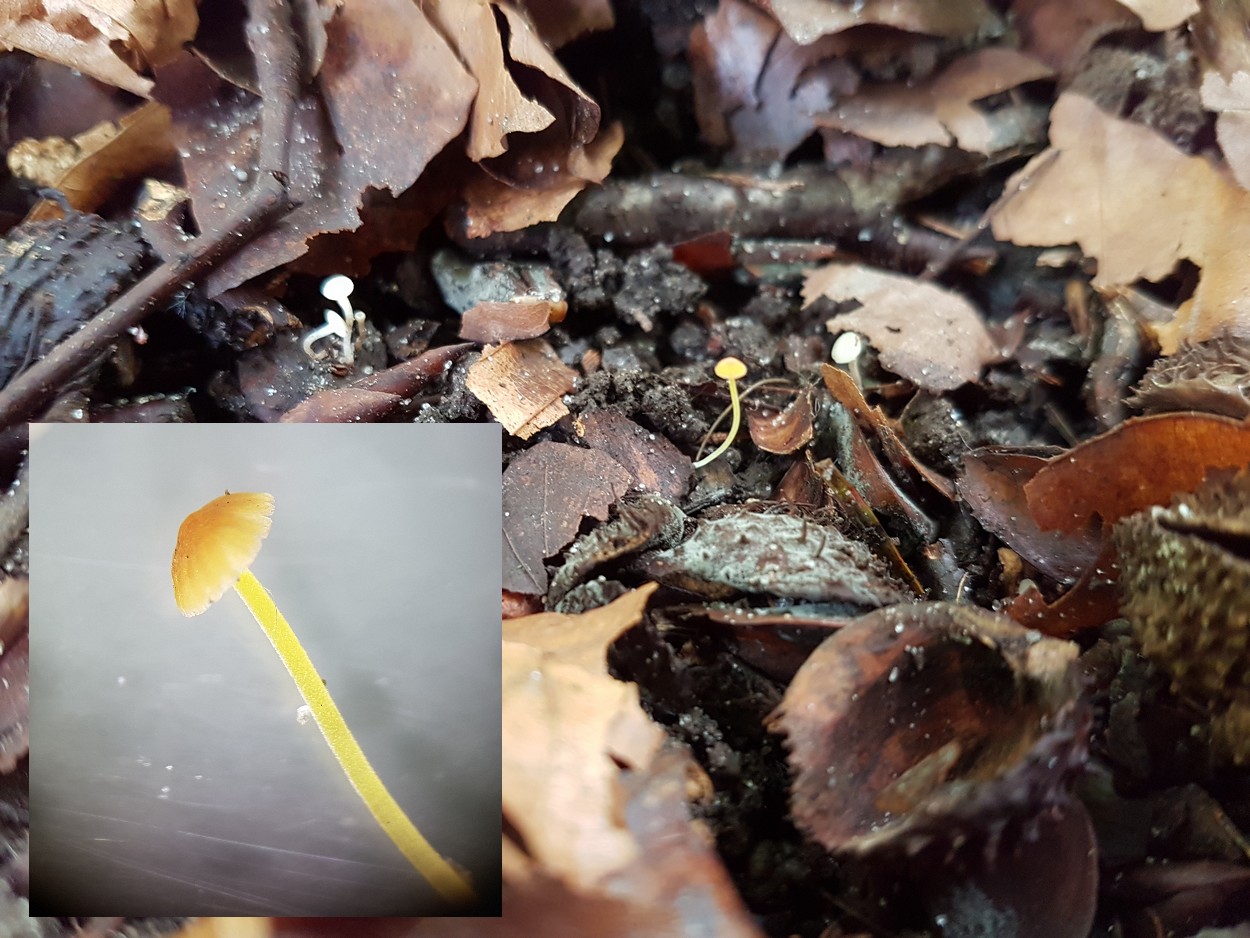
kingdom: Fungi
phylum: Basidiomycota
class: Agaricomycetes
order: Agaricales
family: Mycenaceae
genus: Mycena
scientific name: Mycena acicula
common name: orange huesvamp
